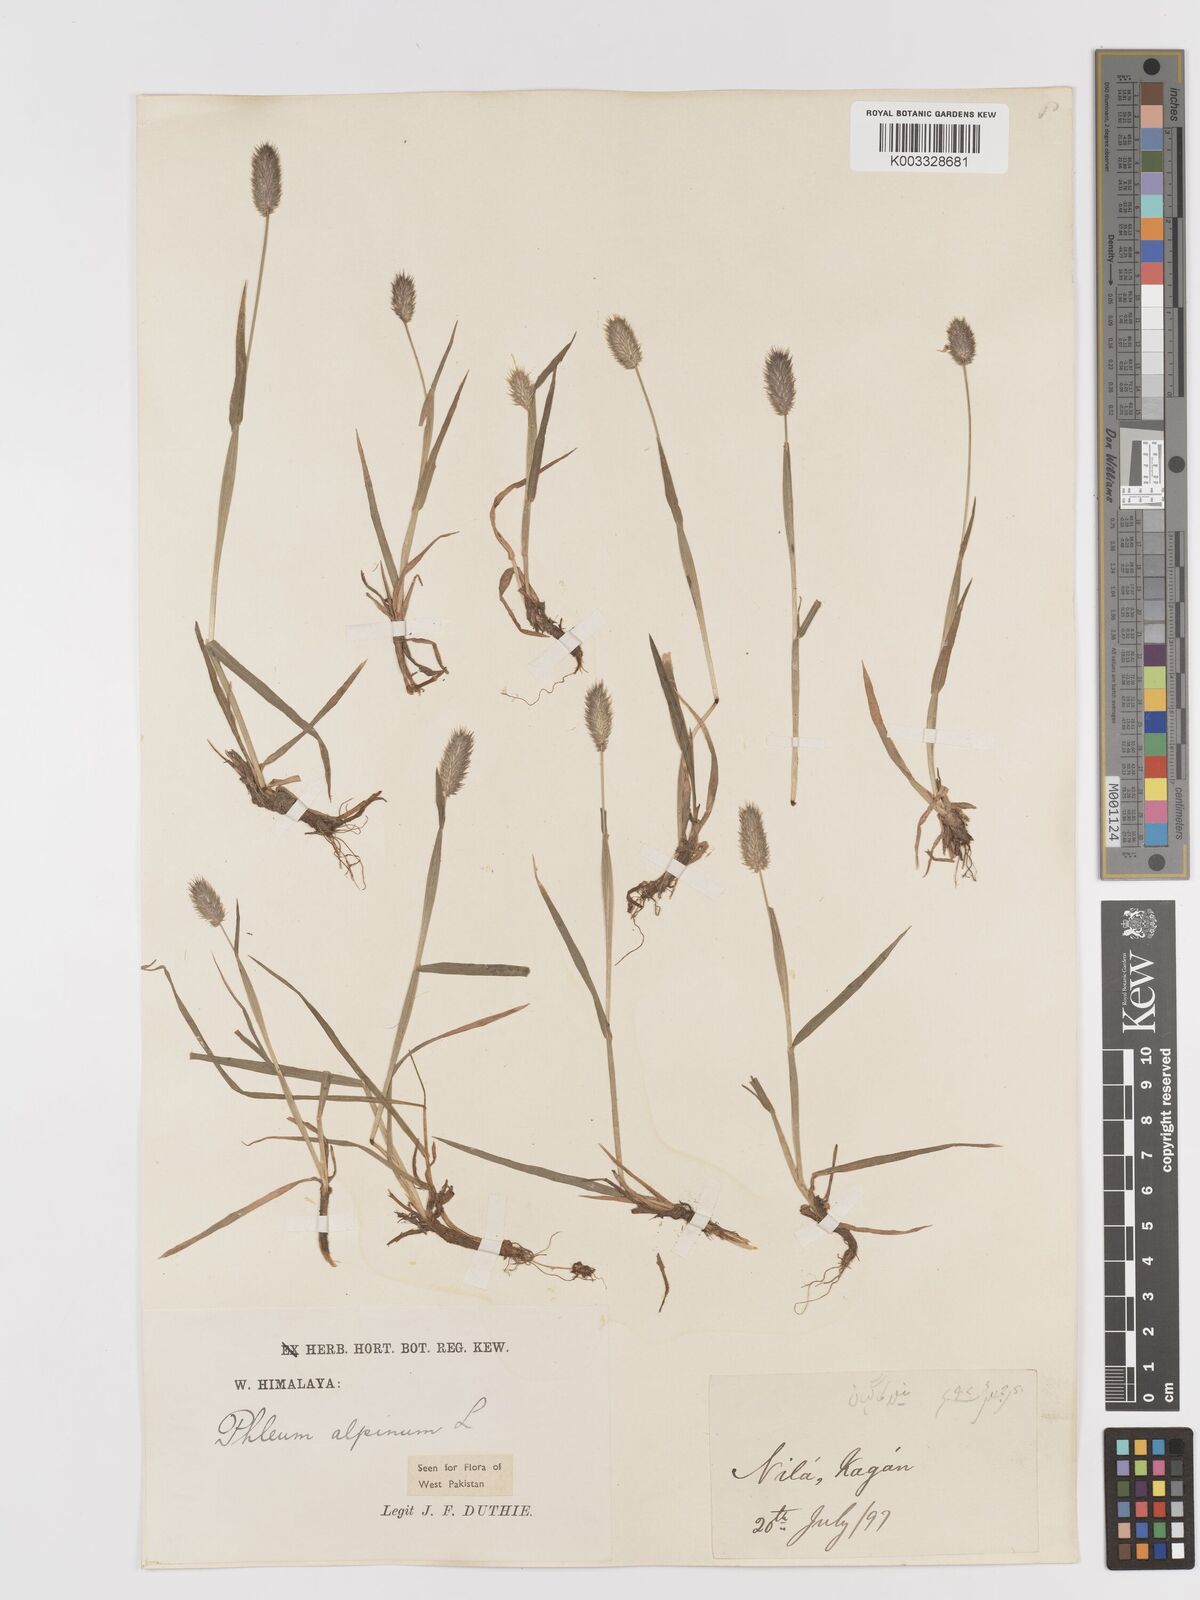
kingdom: Plantae
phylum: Tracheophyta
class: Liliopsida
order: Poales
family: Poaceae
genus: Phleum
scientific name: Phleum alpinum
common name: Alpine cat's-tail
